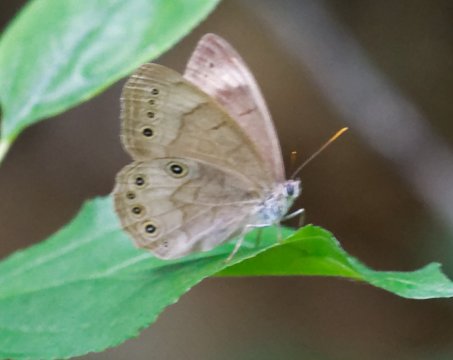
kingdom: Animalia
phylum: Arthropoda
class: Insecta
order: Lepidoptera
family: Nymphalidae
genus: Lethe
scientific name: Lethe eurydice
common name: Appalachian Eyed Brown
